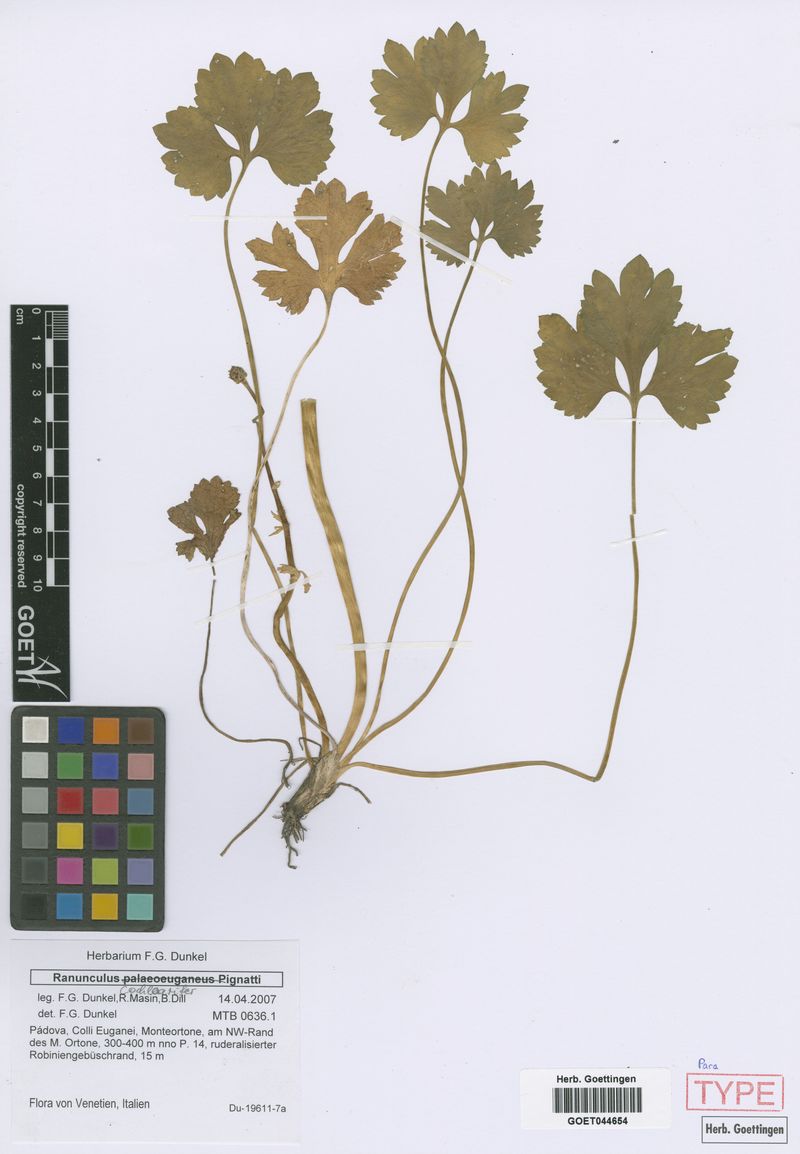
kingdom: Plantae
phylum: Tracheophyta
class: Magnoliopsida
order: Ranunculales
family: Ranunculaceae
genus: Ranunculus
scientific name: Ranunculus cochlearifer
